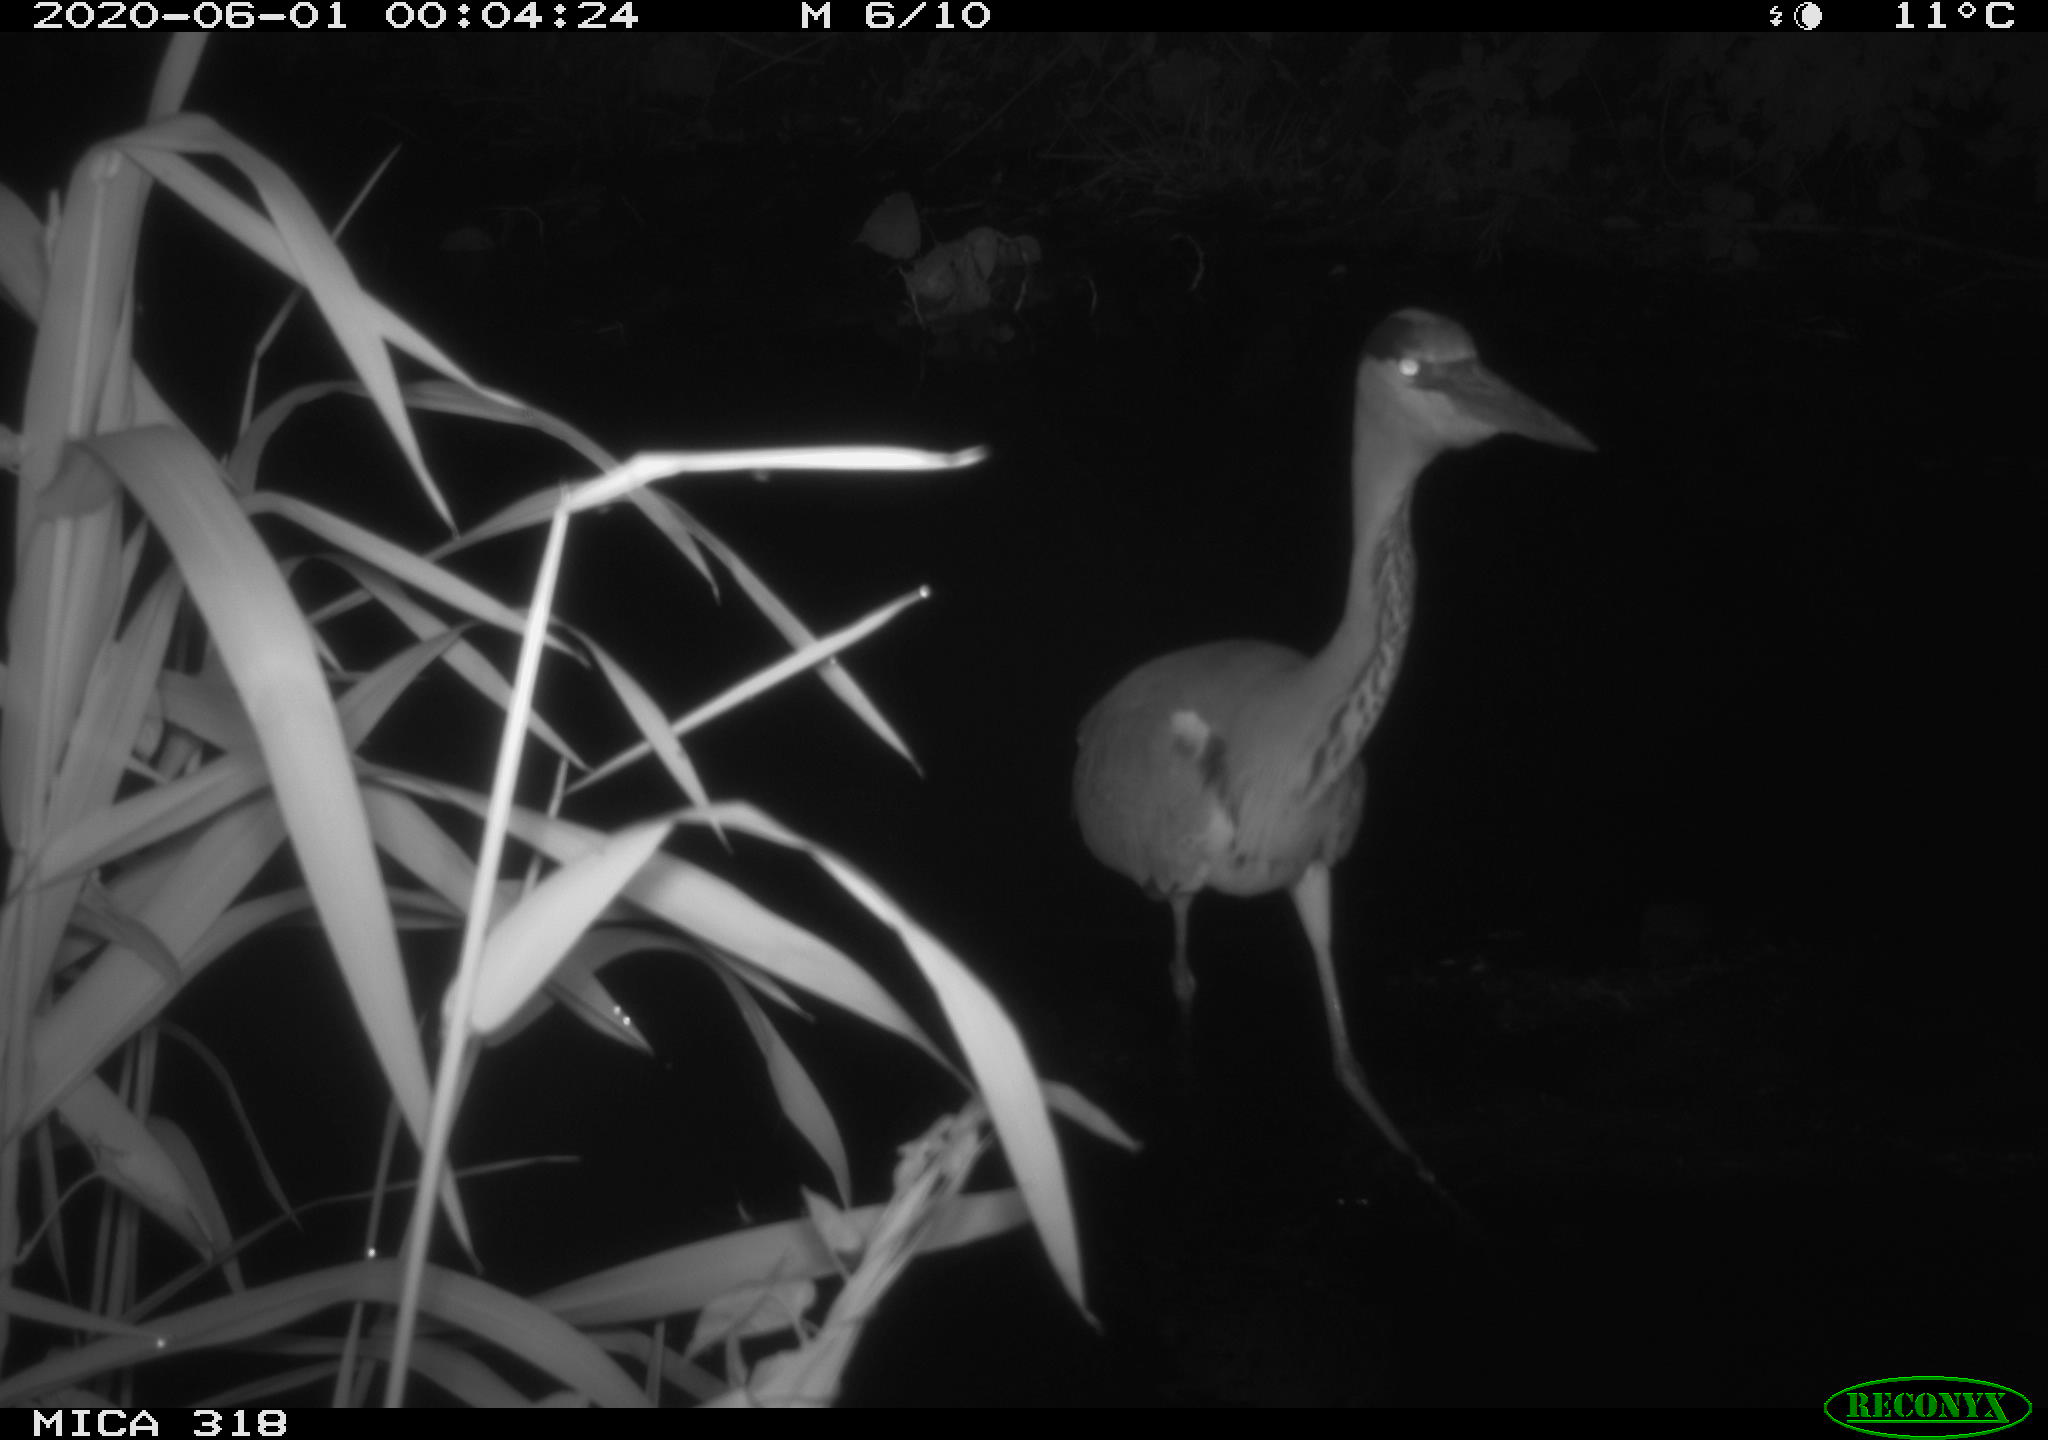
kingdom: Animalia
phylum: Chordata
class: Aves
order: Pelecaniformes
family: Ardeidae
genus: Ardea
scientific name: Ardea cinerea
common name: Grey heron
